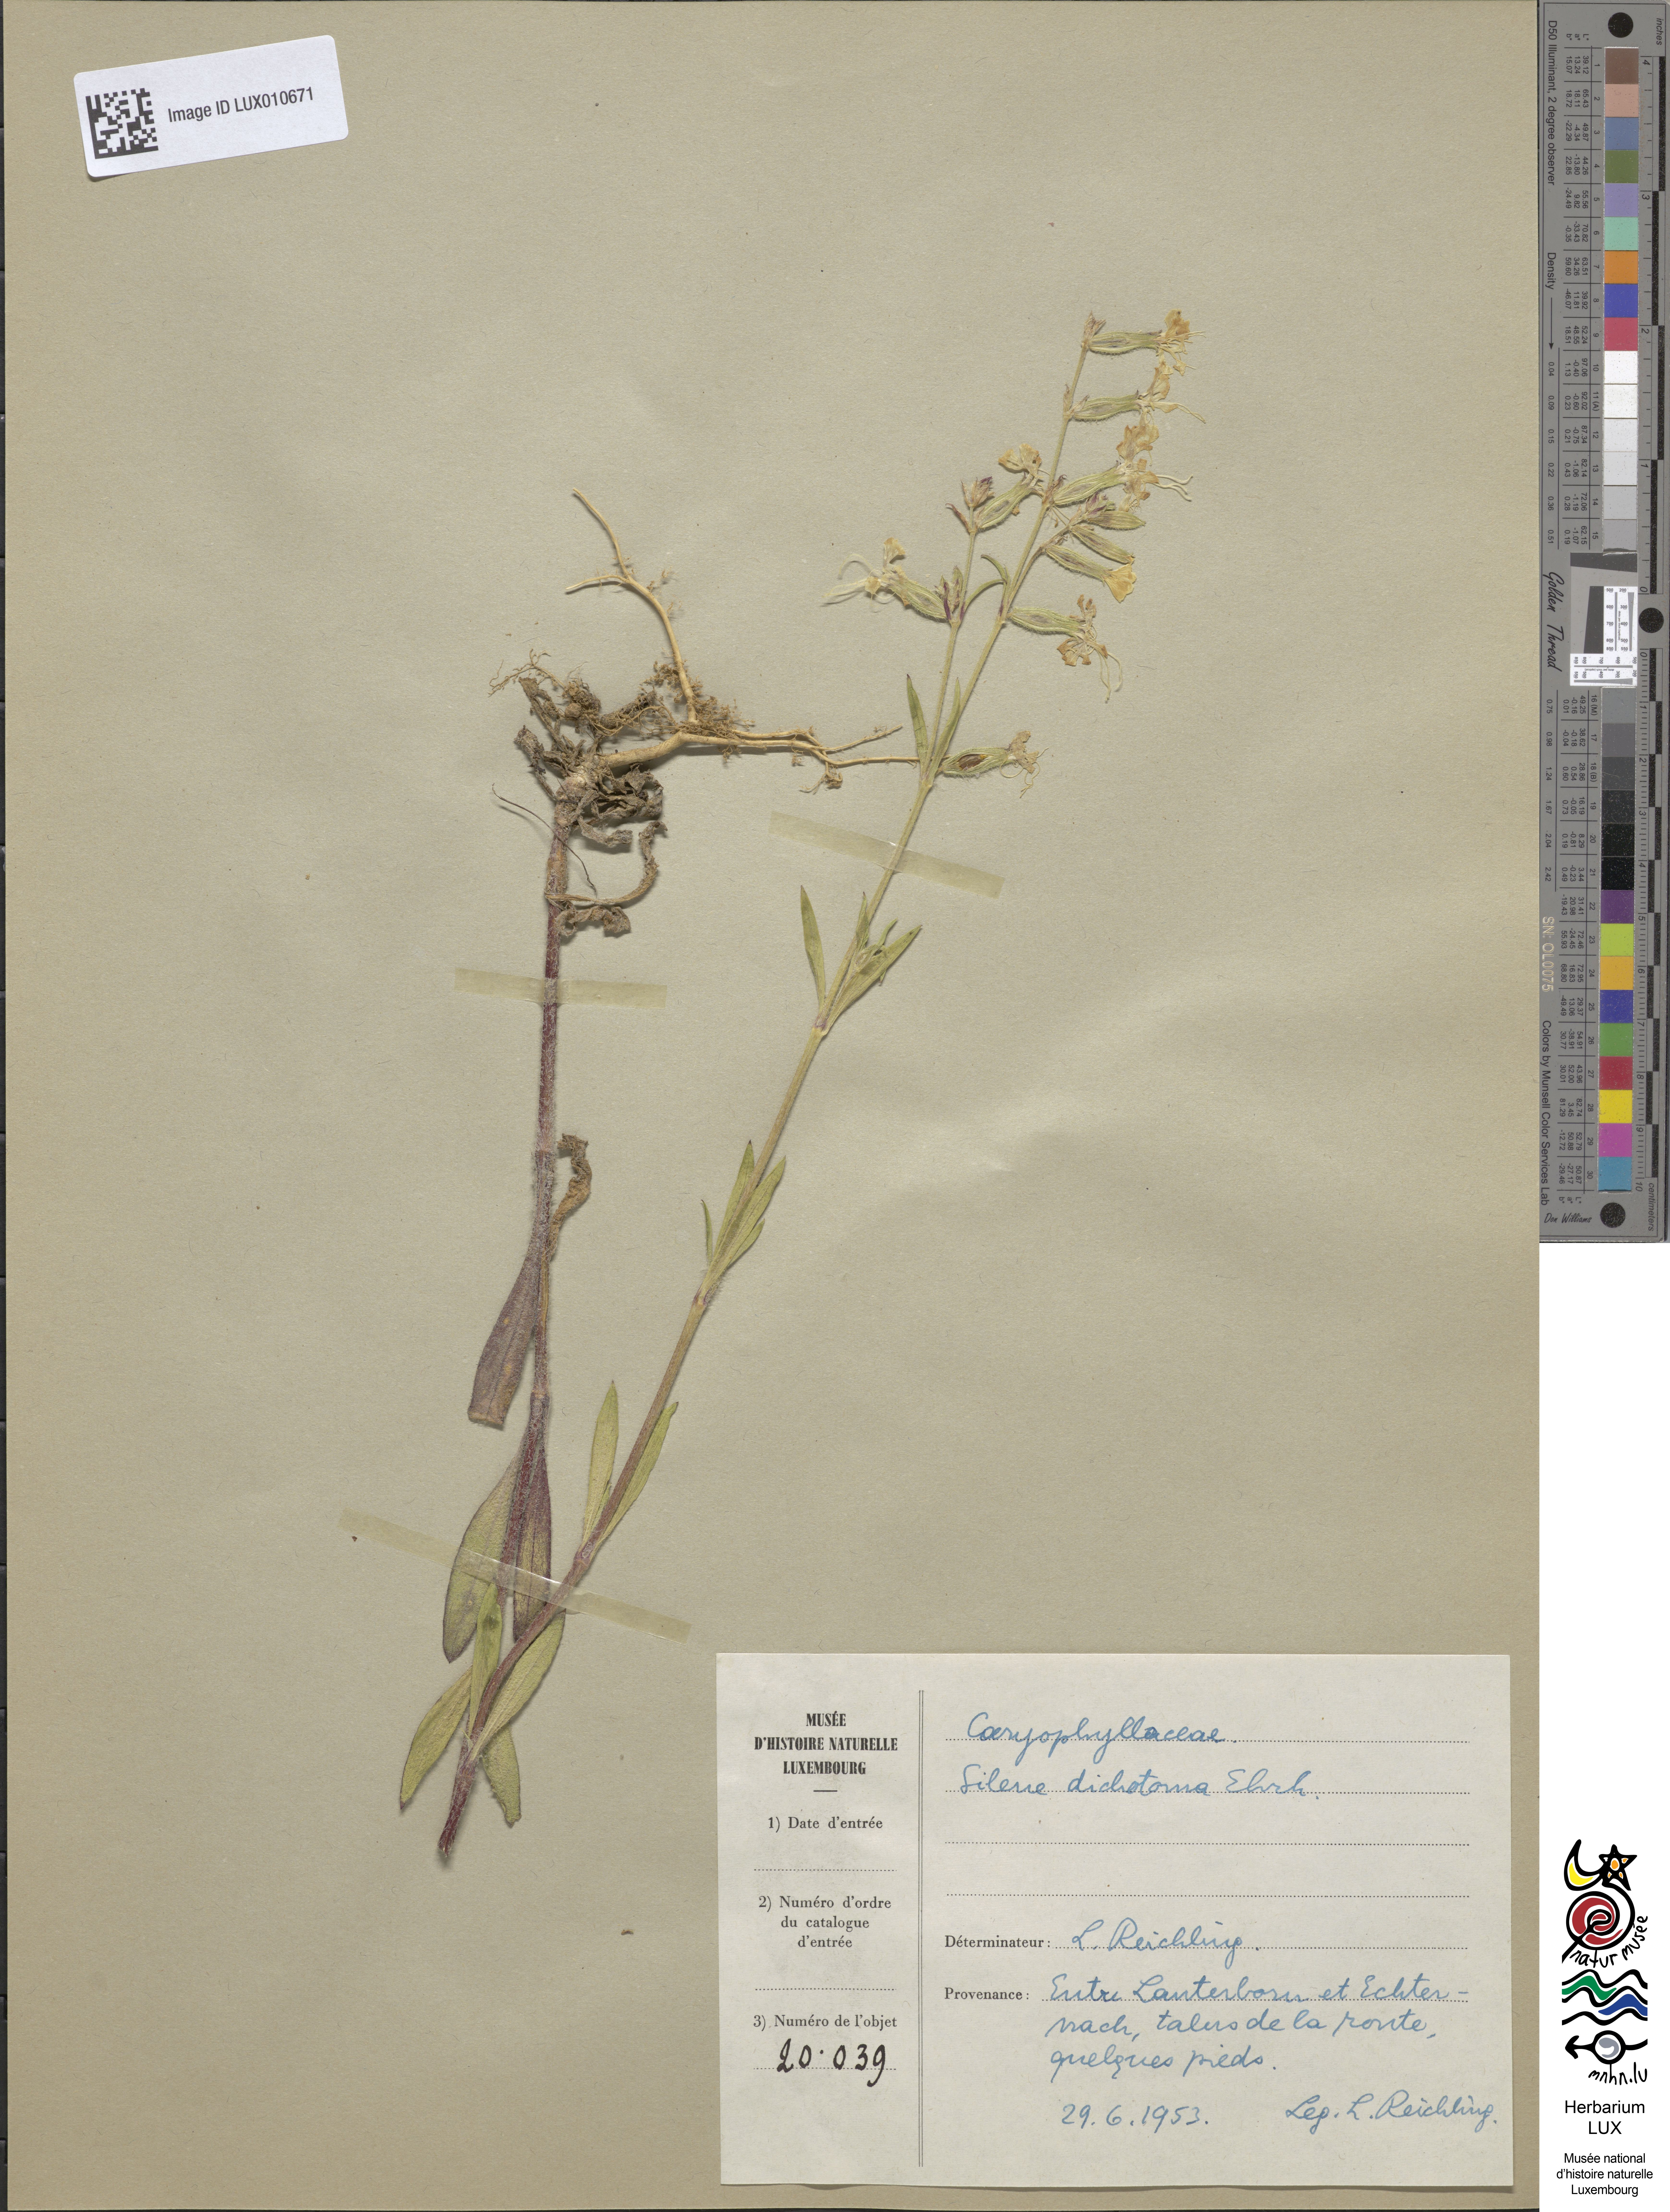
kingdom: Plantae
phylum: Tracheophyta
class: Magnoliopsida
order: Caryophyllales
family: Caryophyllaceae
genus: Silene
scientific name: Silene dichotoma
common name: Forked catchfly
